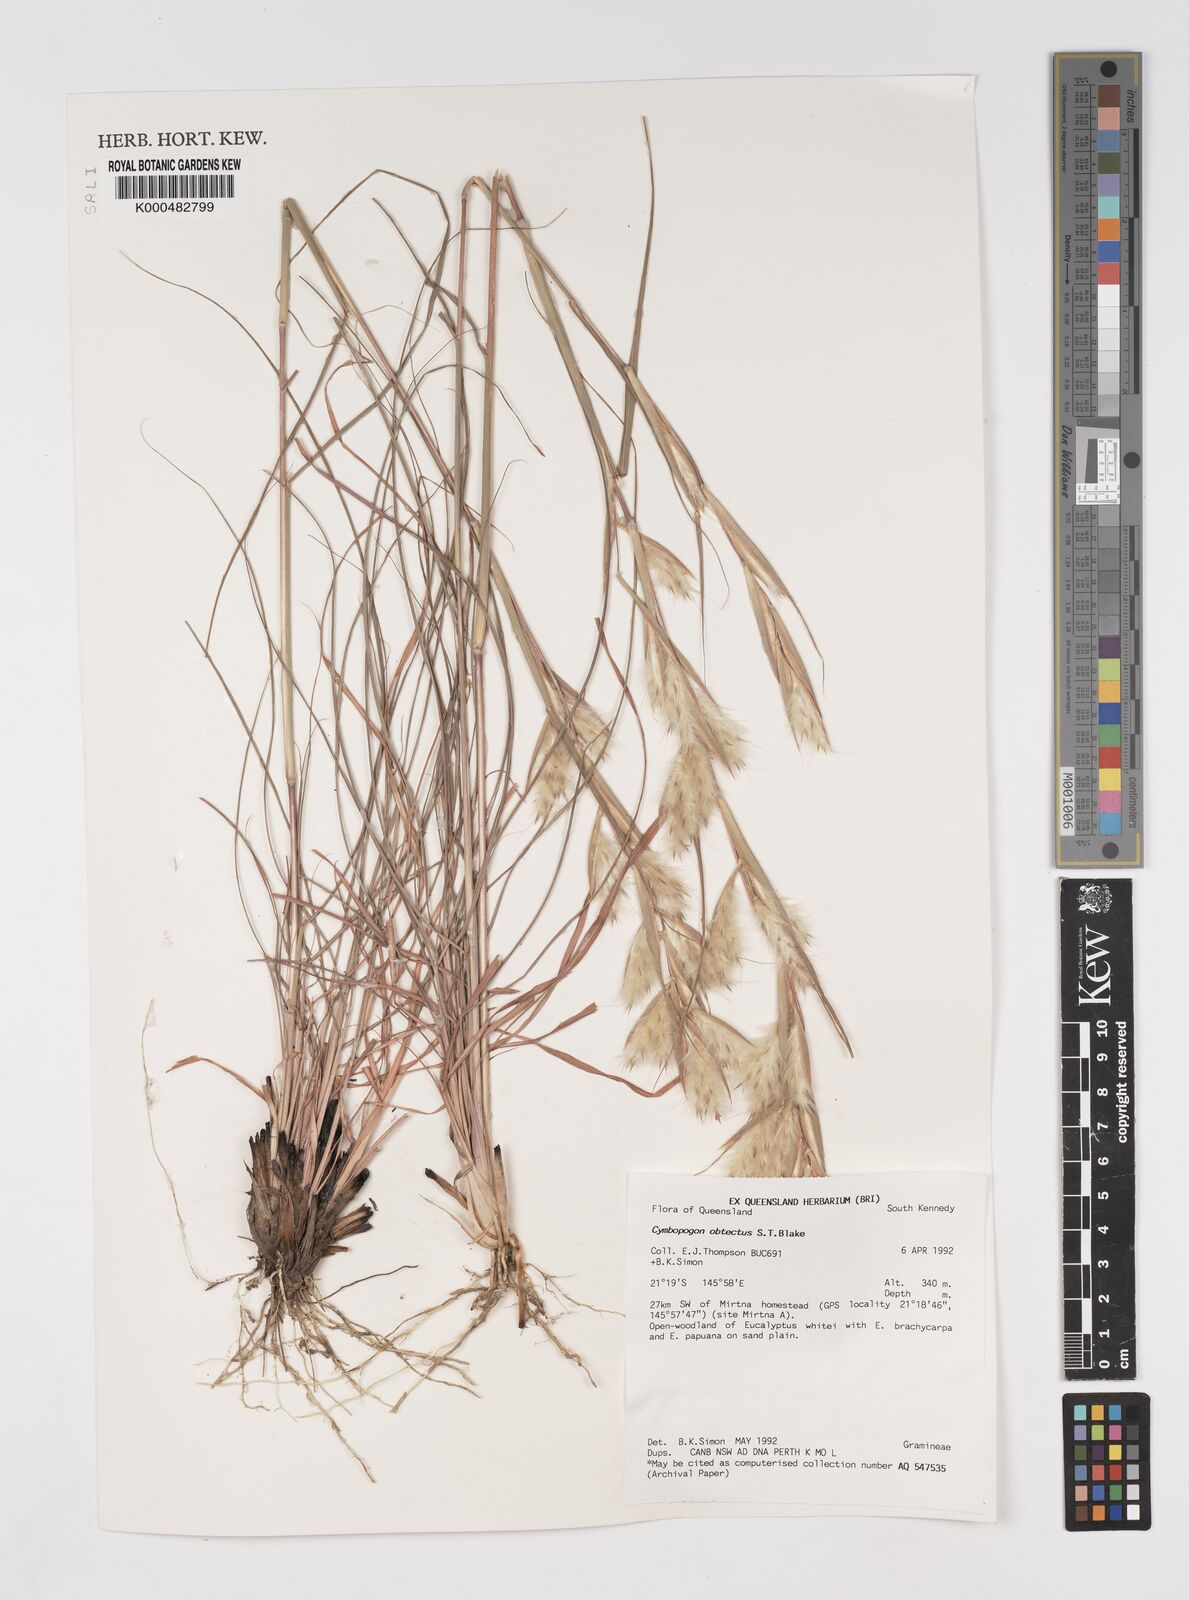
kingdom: Plantae
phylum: Tracheophyta
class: Liliopsida
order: Poales
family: Poaceae
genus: Cymbopogon
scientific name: Cymbopogon obtectus
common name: Silky heads
